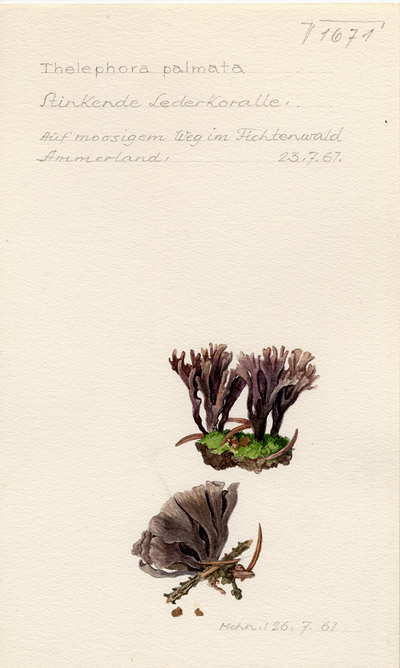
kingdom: Fungi
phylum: Basidiomycota
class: Agaricomycetes
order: Thelephorales
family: Thelephoraceae
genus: Thelephora
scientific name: Thelephora palmata
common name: Stinking earthfan
